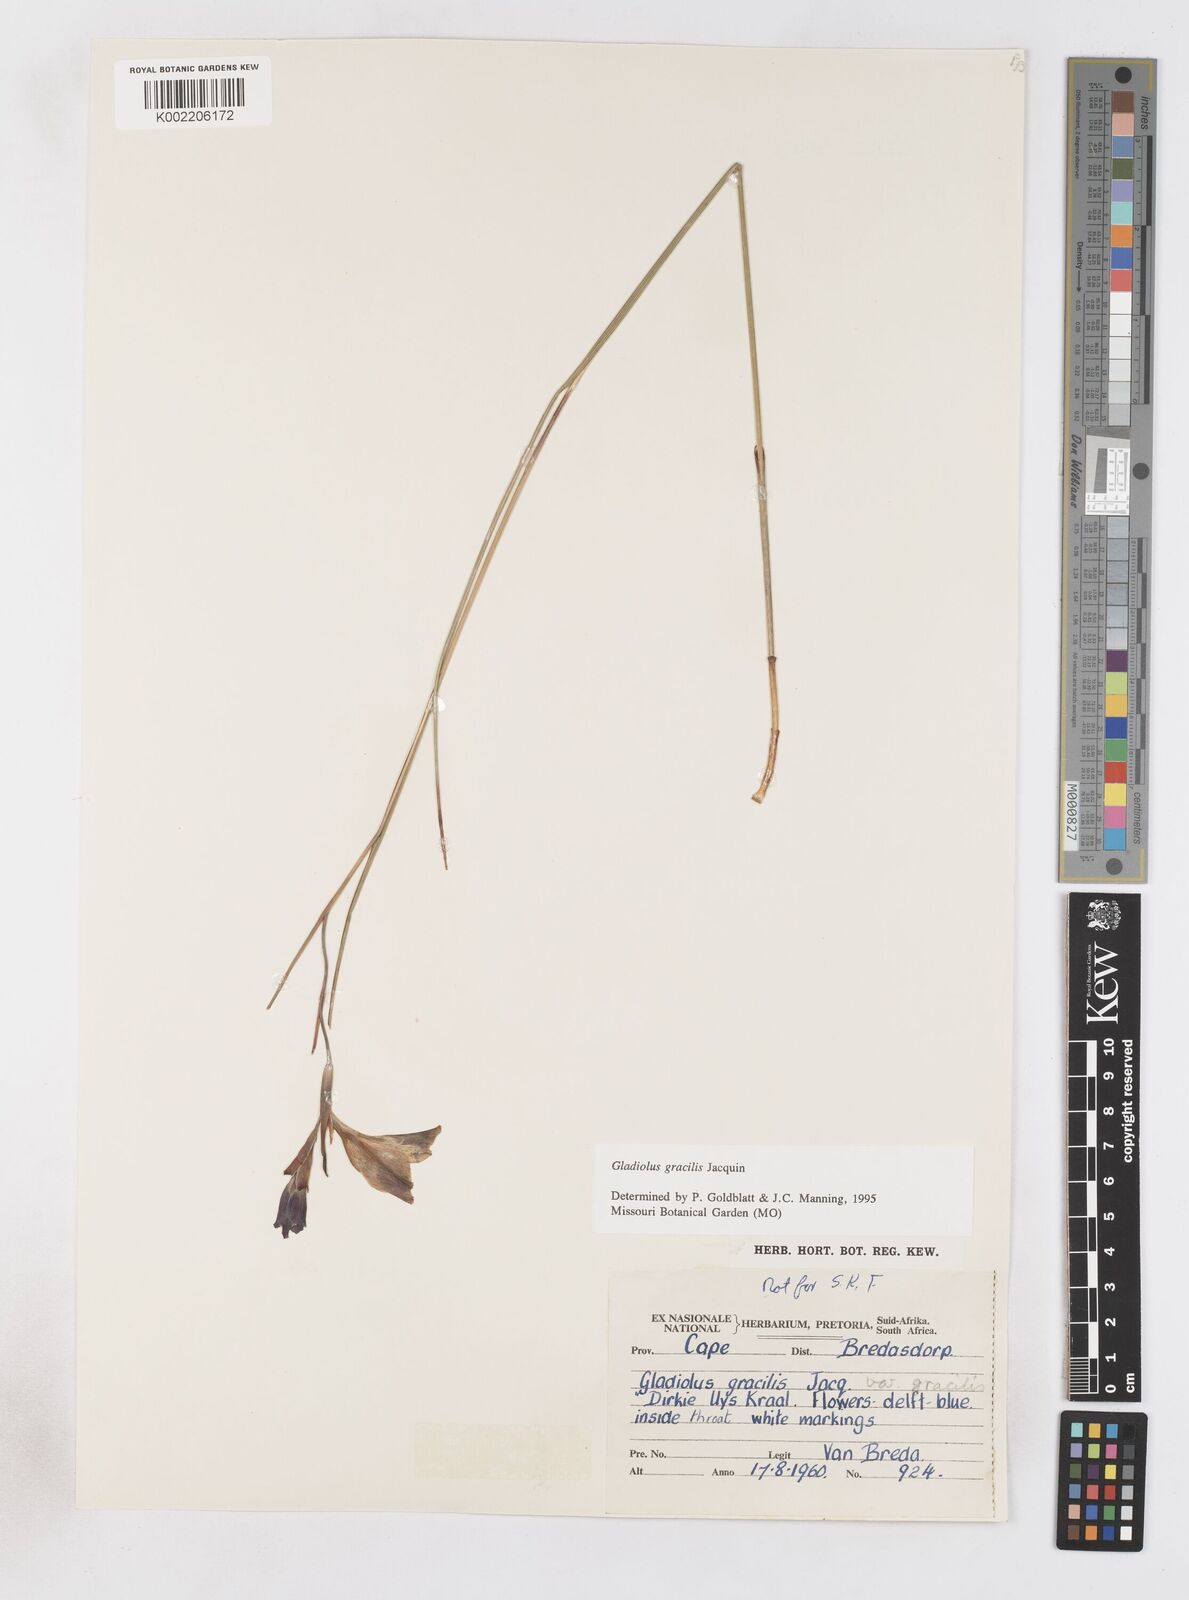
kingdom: Plantae
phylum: Tracheophyta
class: Liliopsida
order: Asparagales
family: Iridaceae
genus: Gladiolus
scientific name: Gladiolus gracilis
